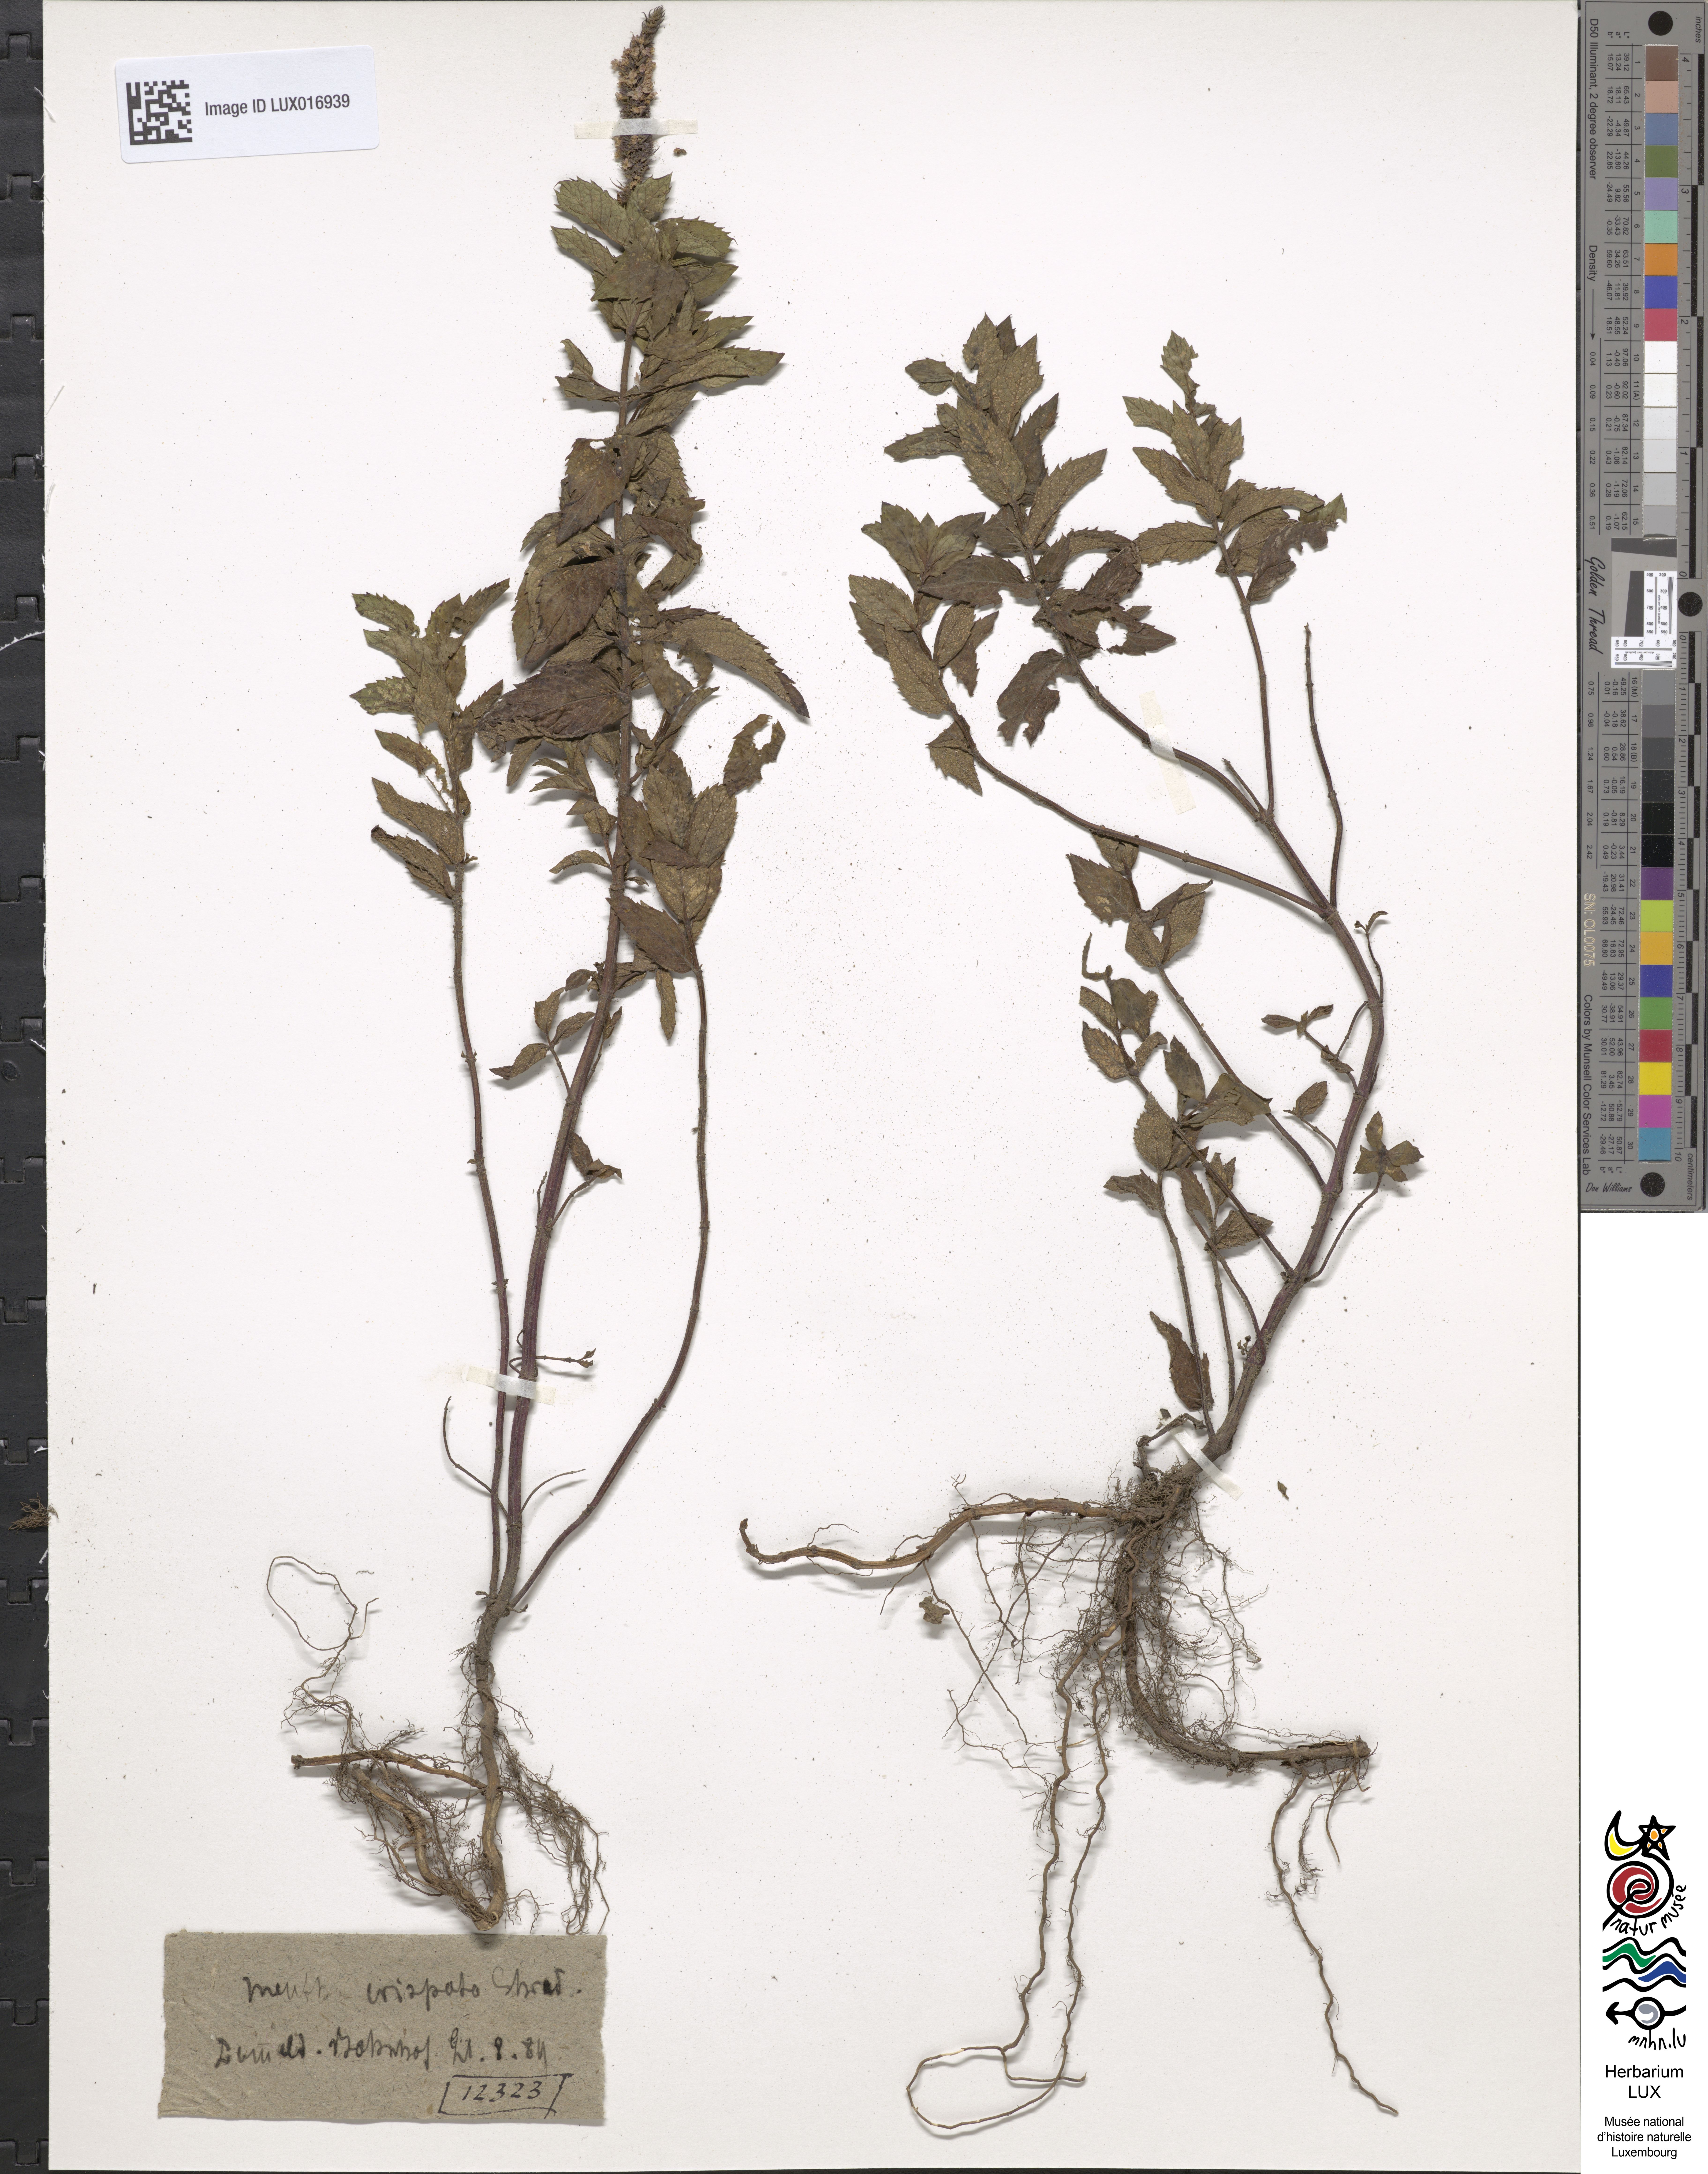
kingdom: Plantae
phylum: Tracheophyta
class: Magnoliopsida
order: Lamiales
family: Lamiaceae
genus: Mentha
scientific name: Mentha spicata
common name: Spearmint
